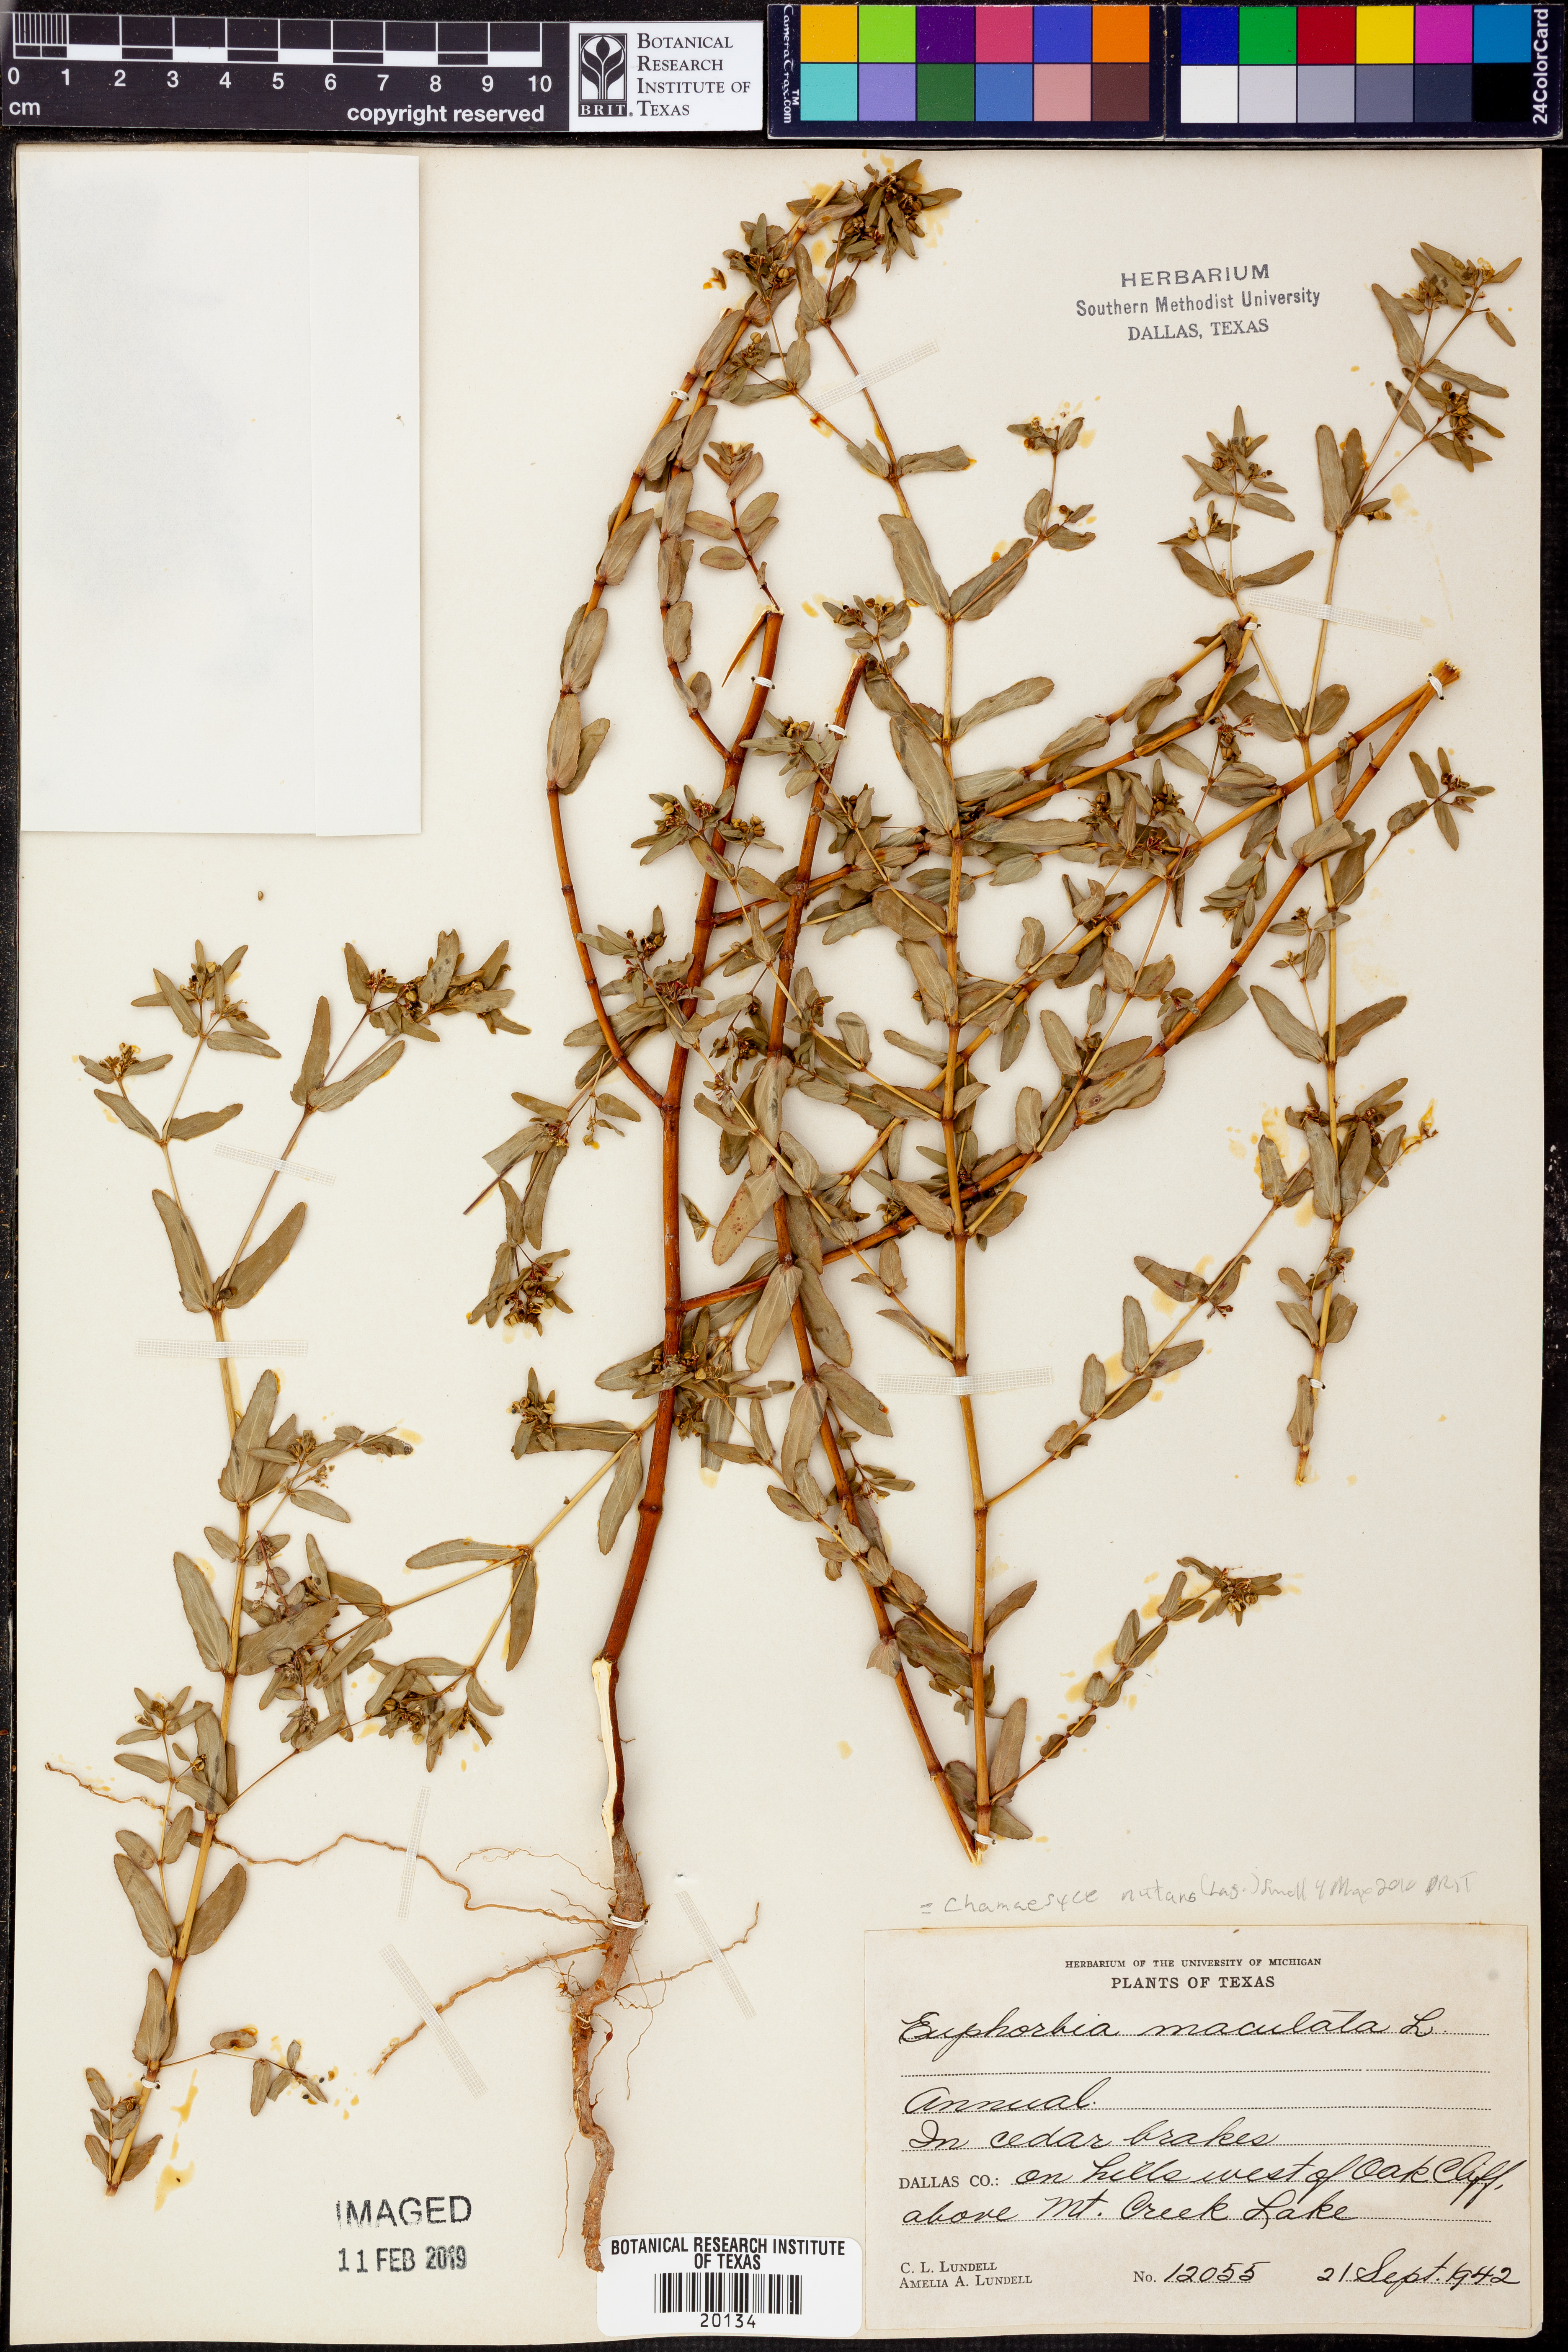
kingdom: Plantae
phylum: Tracheophyta
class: Magnoliopsida
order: Malpighiales
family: Euphorbiaceae
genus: Euphorbia
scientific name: Euphorbia nutans
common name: Eyebane
